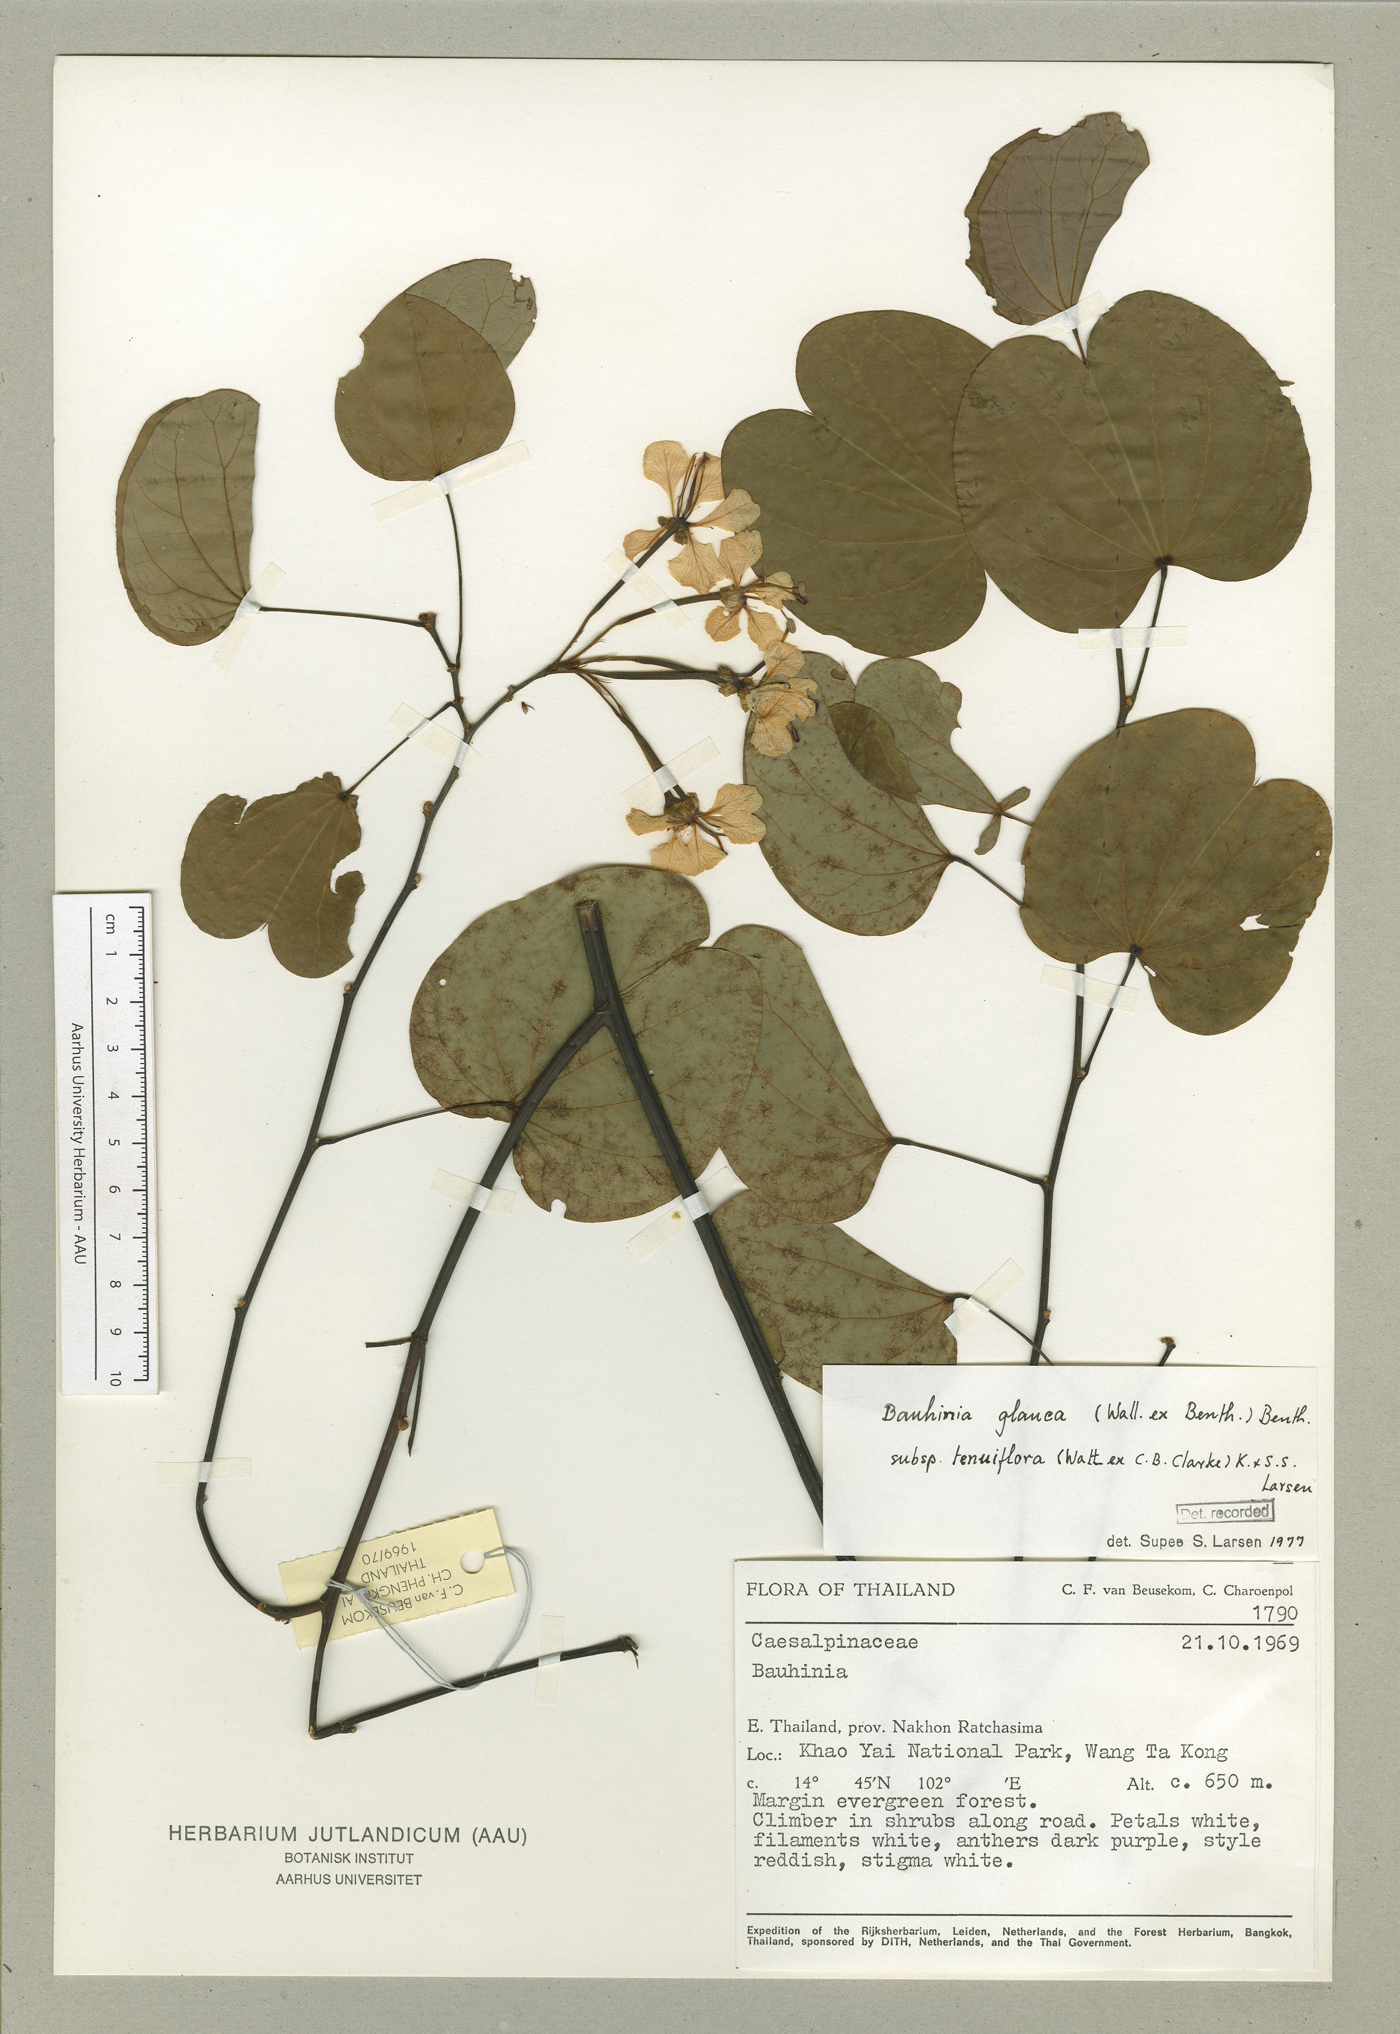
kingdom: Plantae
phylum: Tracheophyta
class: Magnoliopsida
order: Fabales
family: Fabaceae
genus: Cheniella
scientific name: Cheniella tenuiflora
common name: Bauhinia
